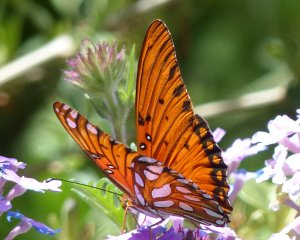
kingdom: Animalia
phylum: Arthropoda
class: Insecta
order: Lepidoptera
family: Nymphalidae
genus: Dione
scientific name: Dione vanillae
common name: Gulf Fritillary
